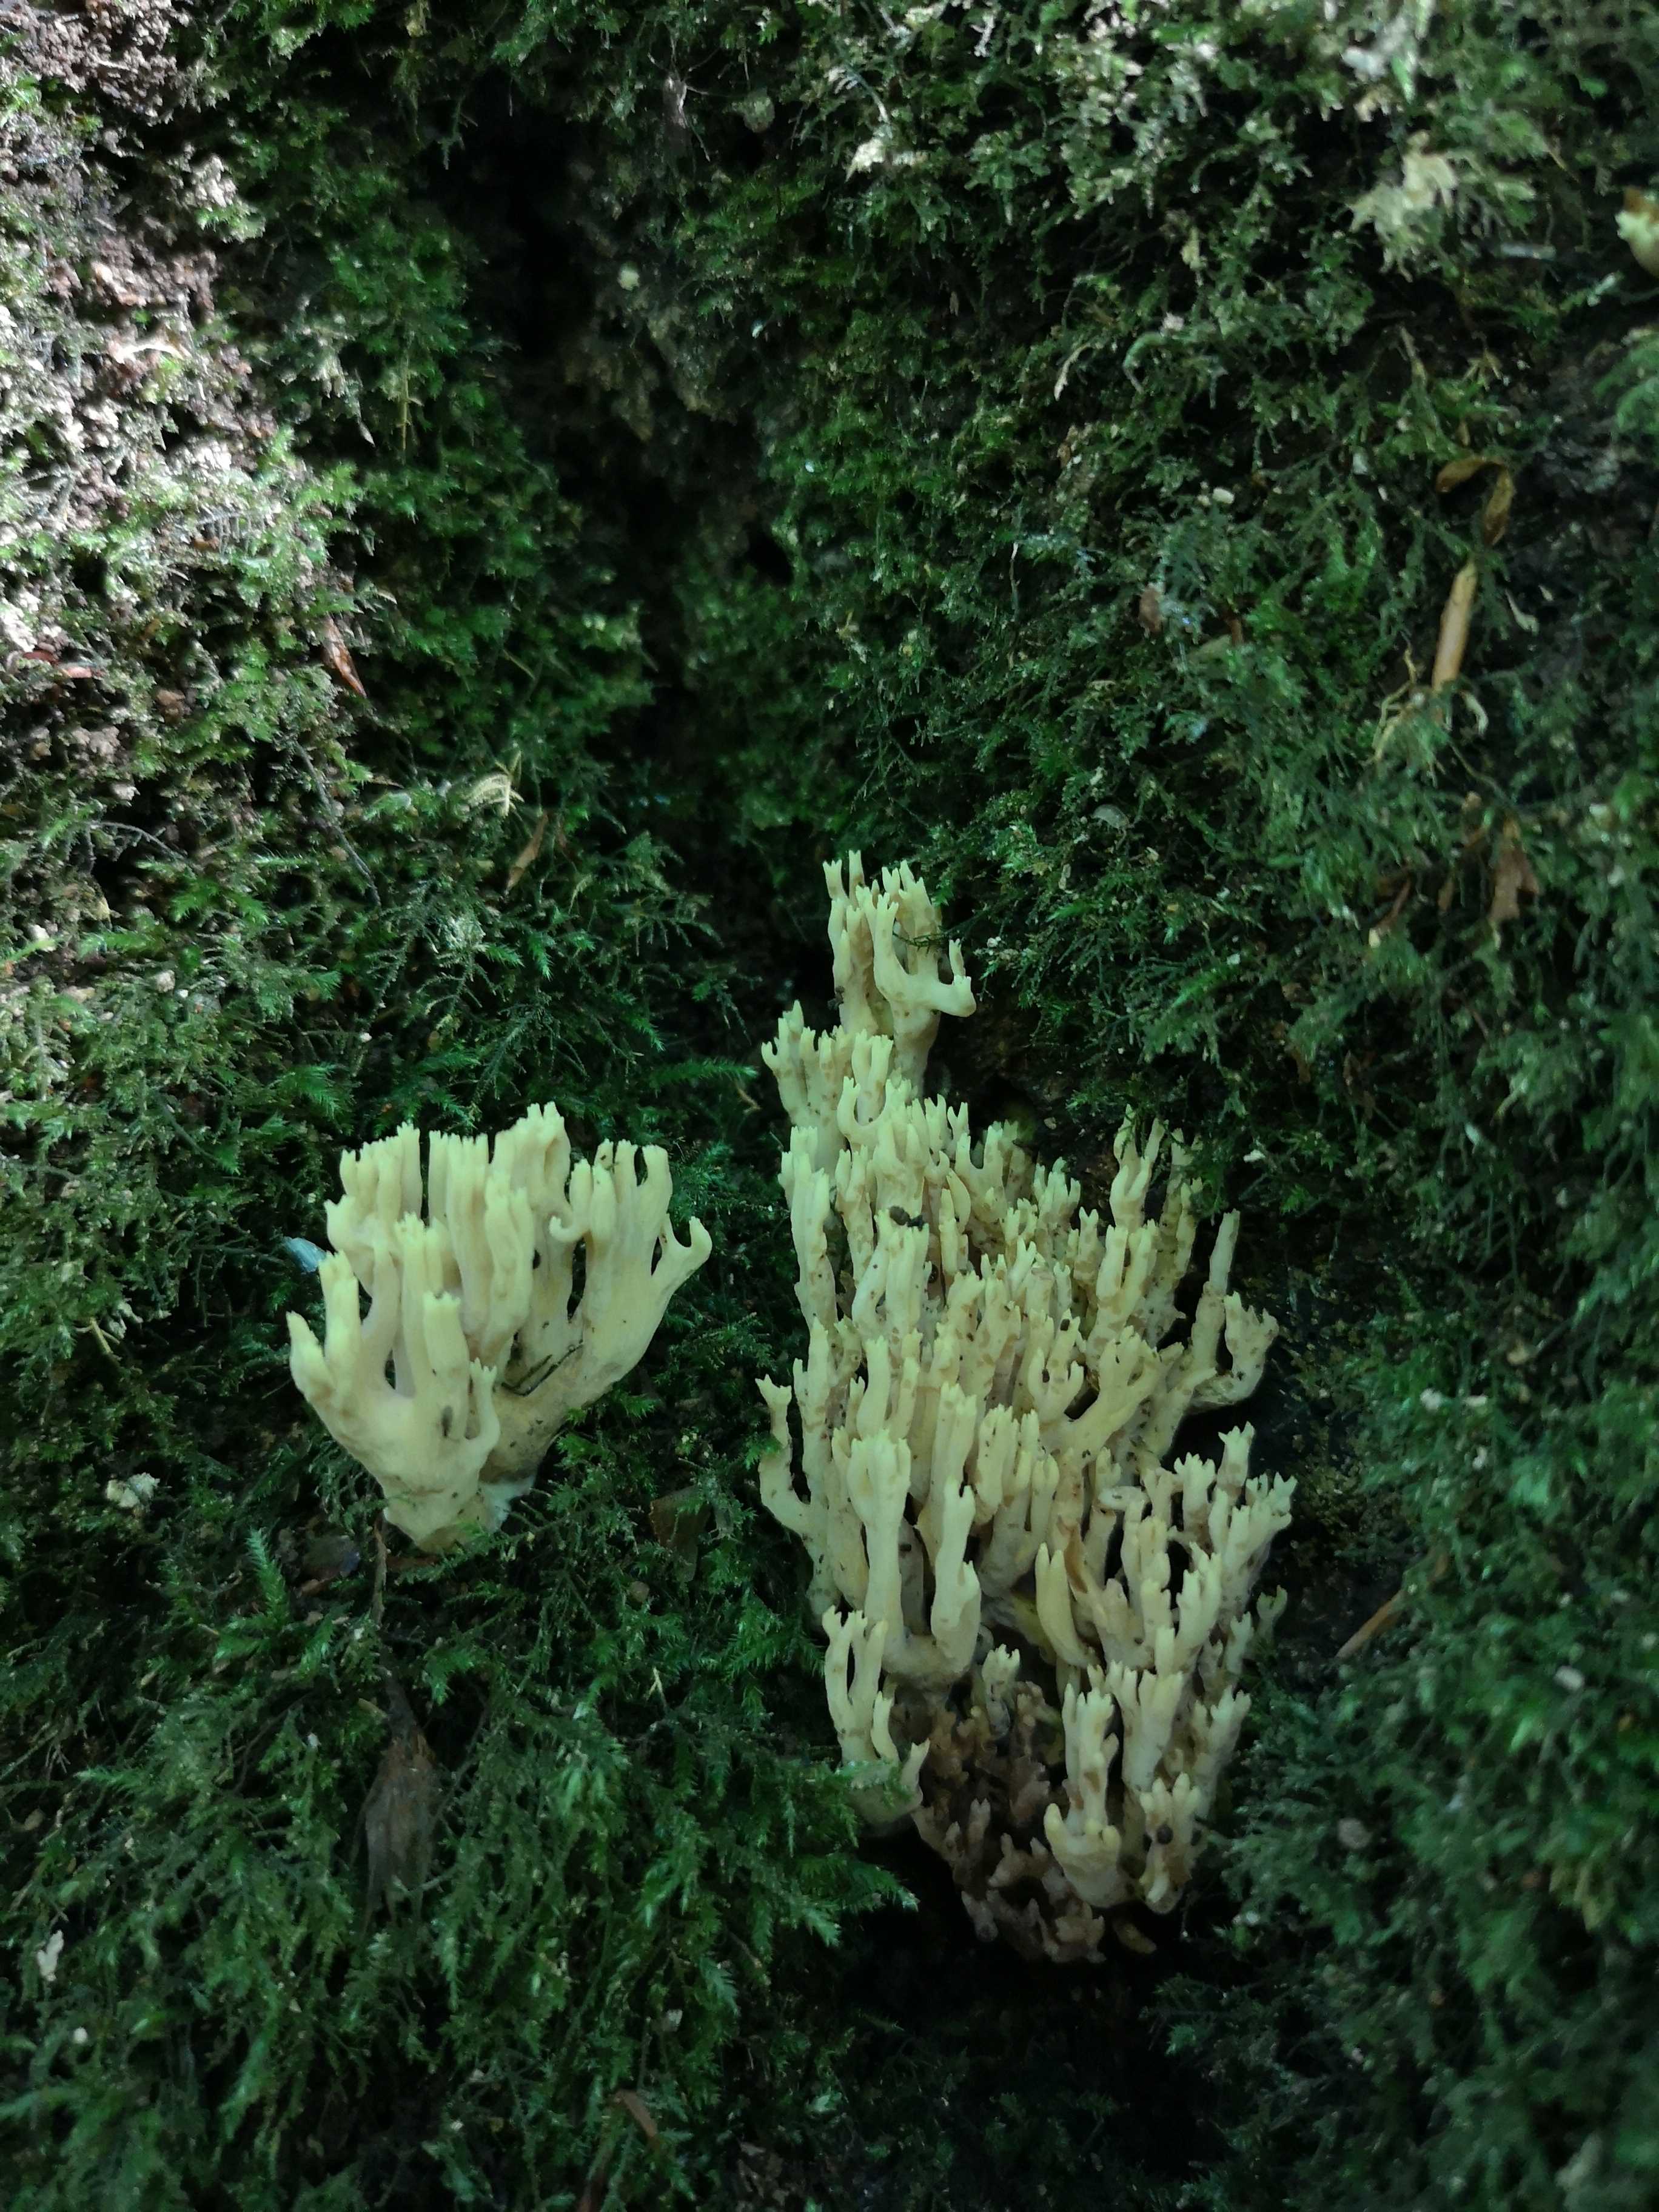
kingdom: Fungi
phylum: Basidiomycota
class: Agaricomycetes
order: Gomphales
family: Gomphaceae
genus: Ramaria
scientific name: Ramaria stricta
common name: rank koralsvamp
